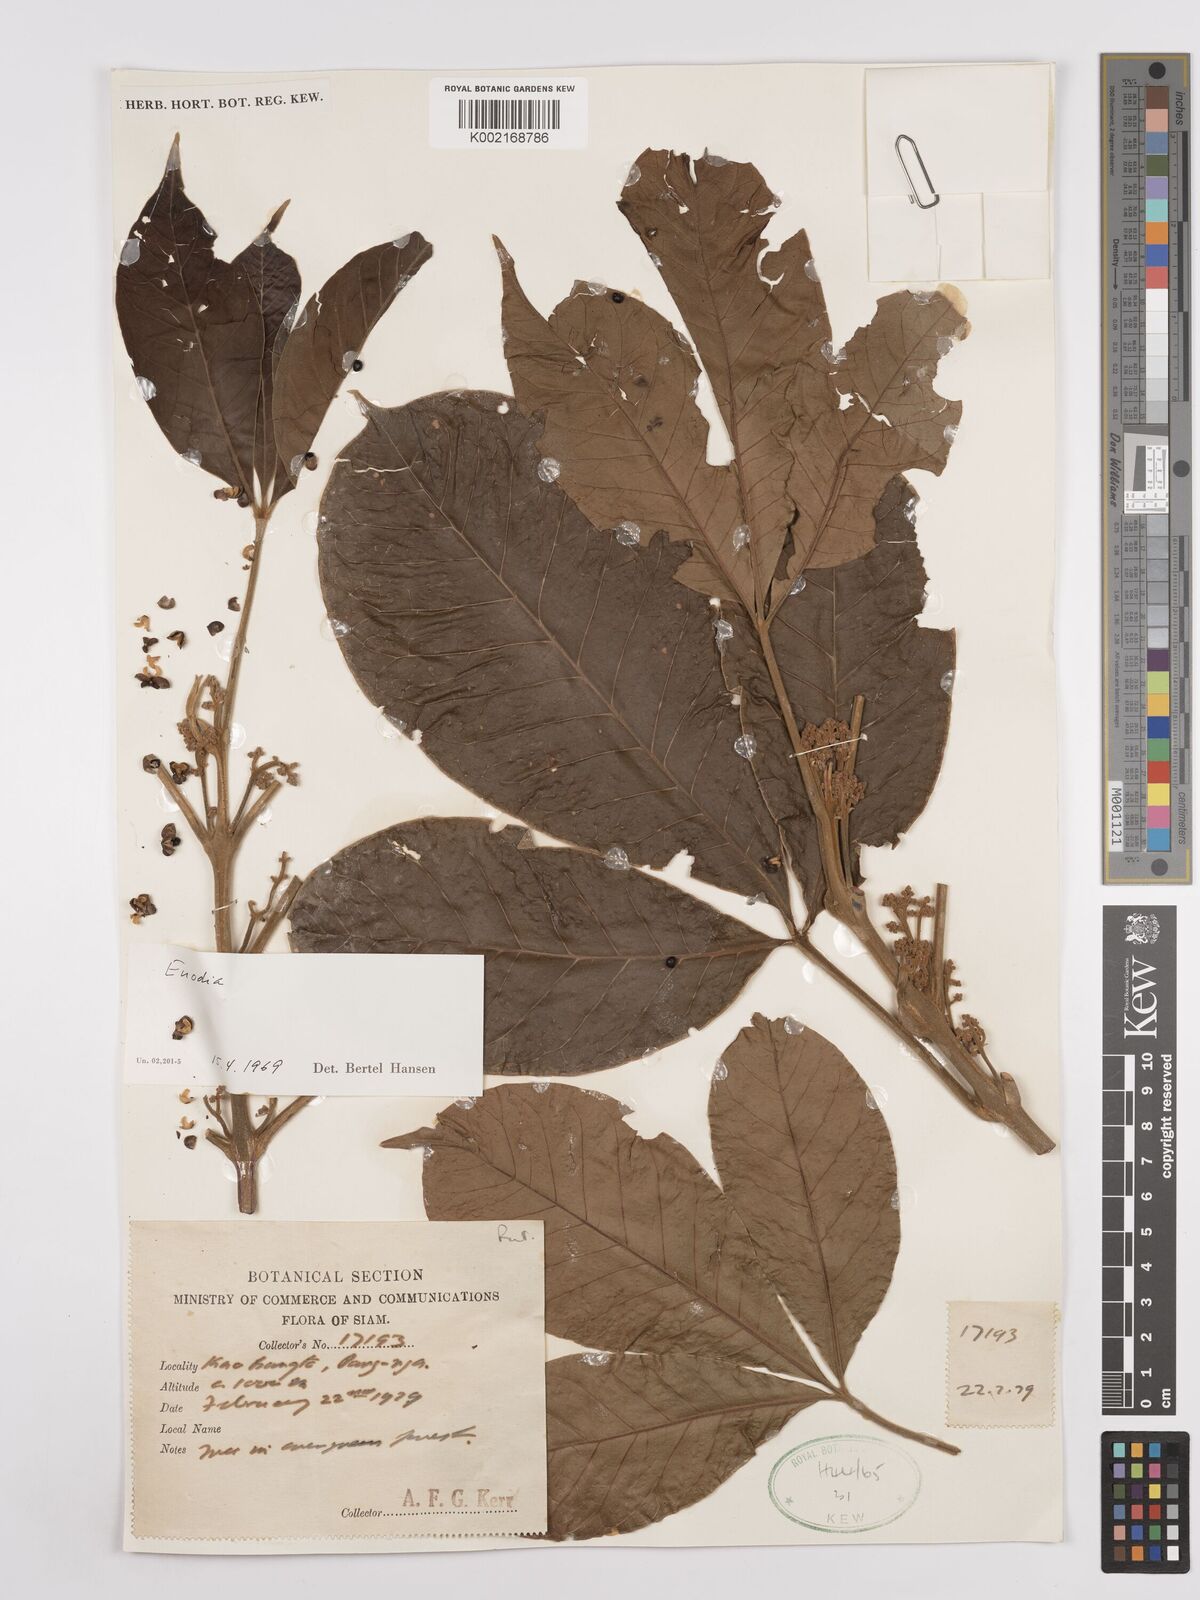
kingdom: Plantae
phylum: Tracheophyta
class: Magnoliopsida
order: Sapindales
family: Rutaceae
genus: Euodia
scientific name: Euodia
